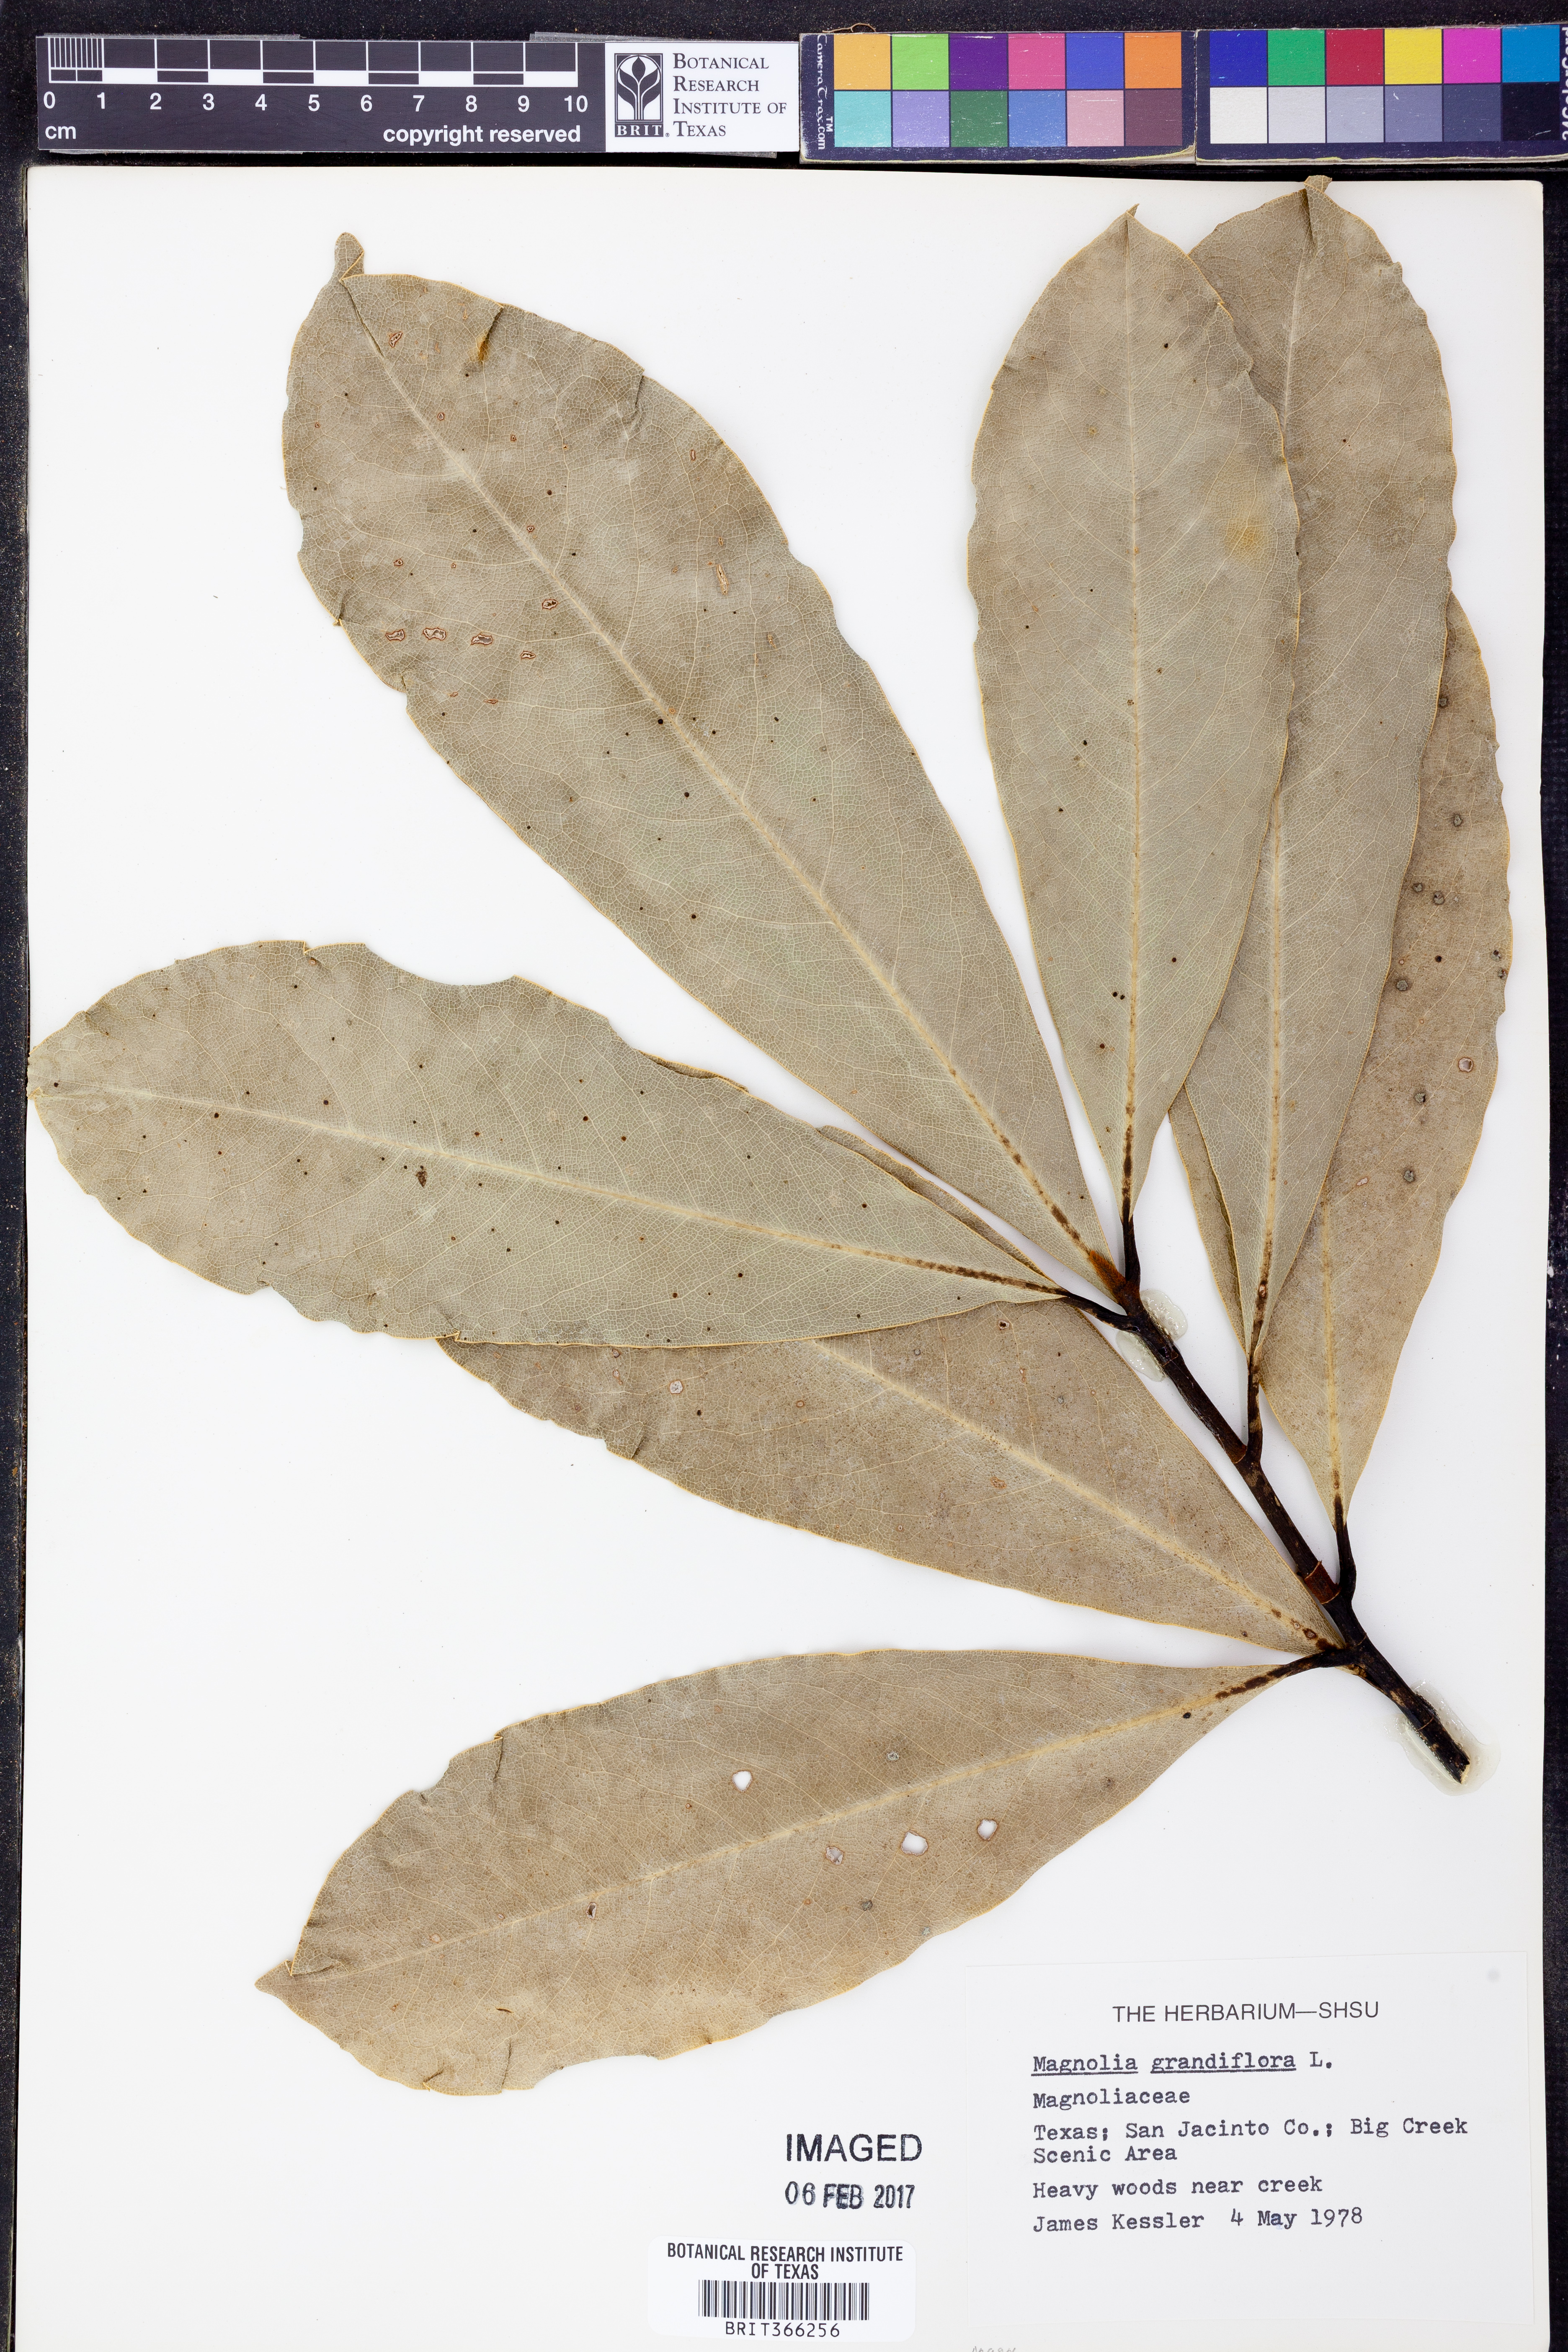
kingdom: Plantae
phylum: Tracheophyta
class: Magnoliopsida
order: Magnoliales
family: Magnoliaceae
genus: Magnolia
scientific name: Magnolia grandiflora
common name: Southern magnolia
